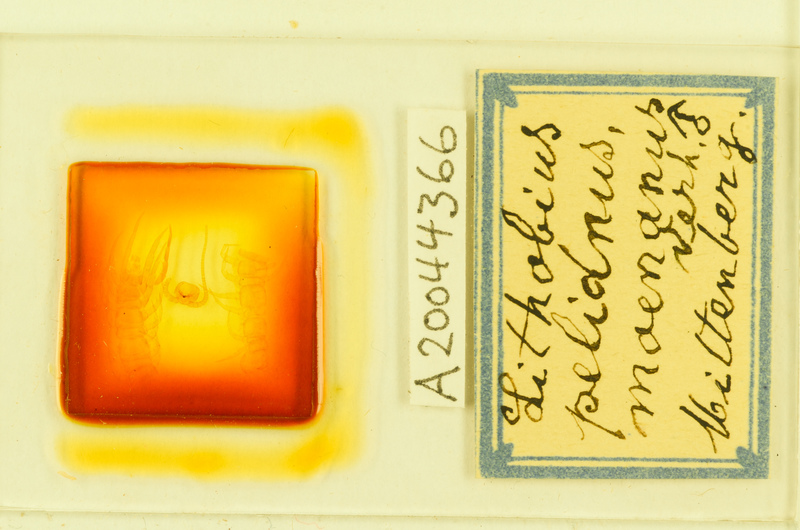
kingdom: Animalia
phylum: Arthropoda
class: Chilopoda
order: Lithobiomorpha
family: Lithobiidae
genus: Lithobius
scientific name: Lithobius pelidnus
